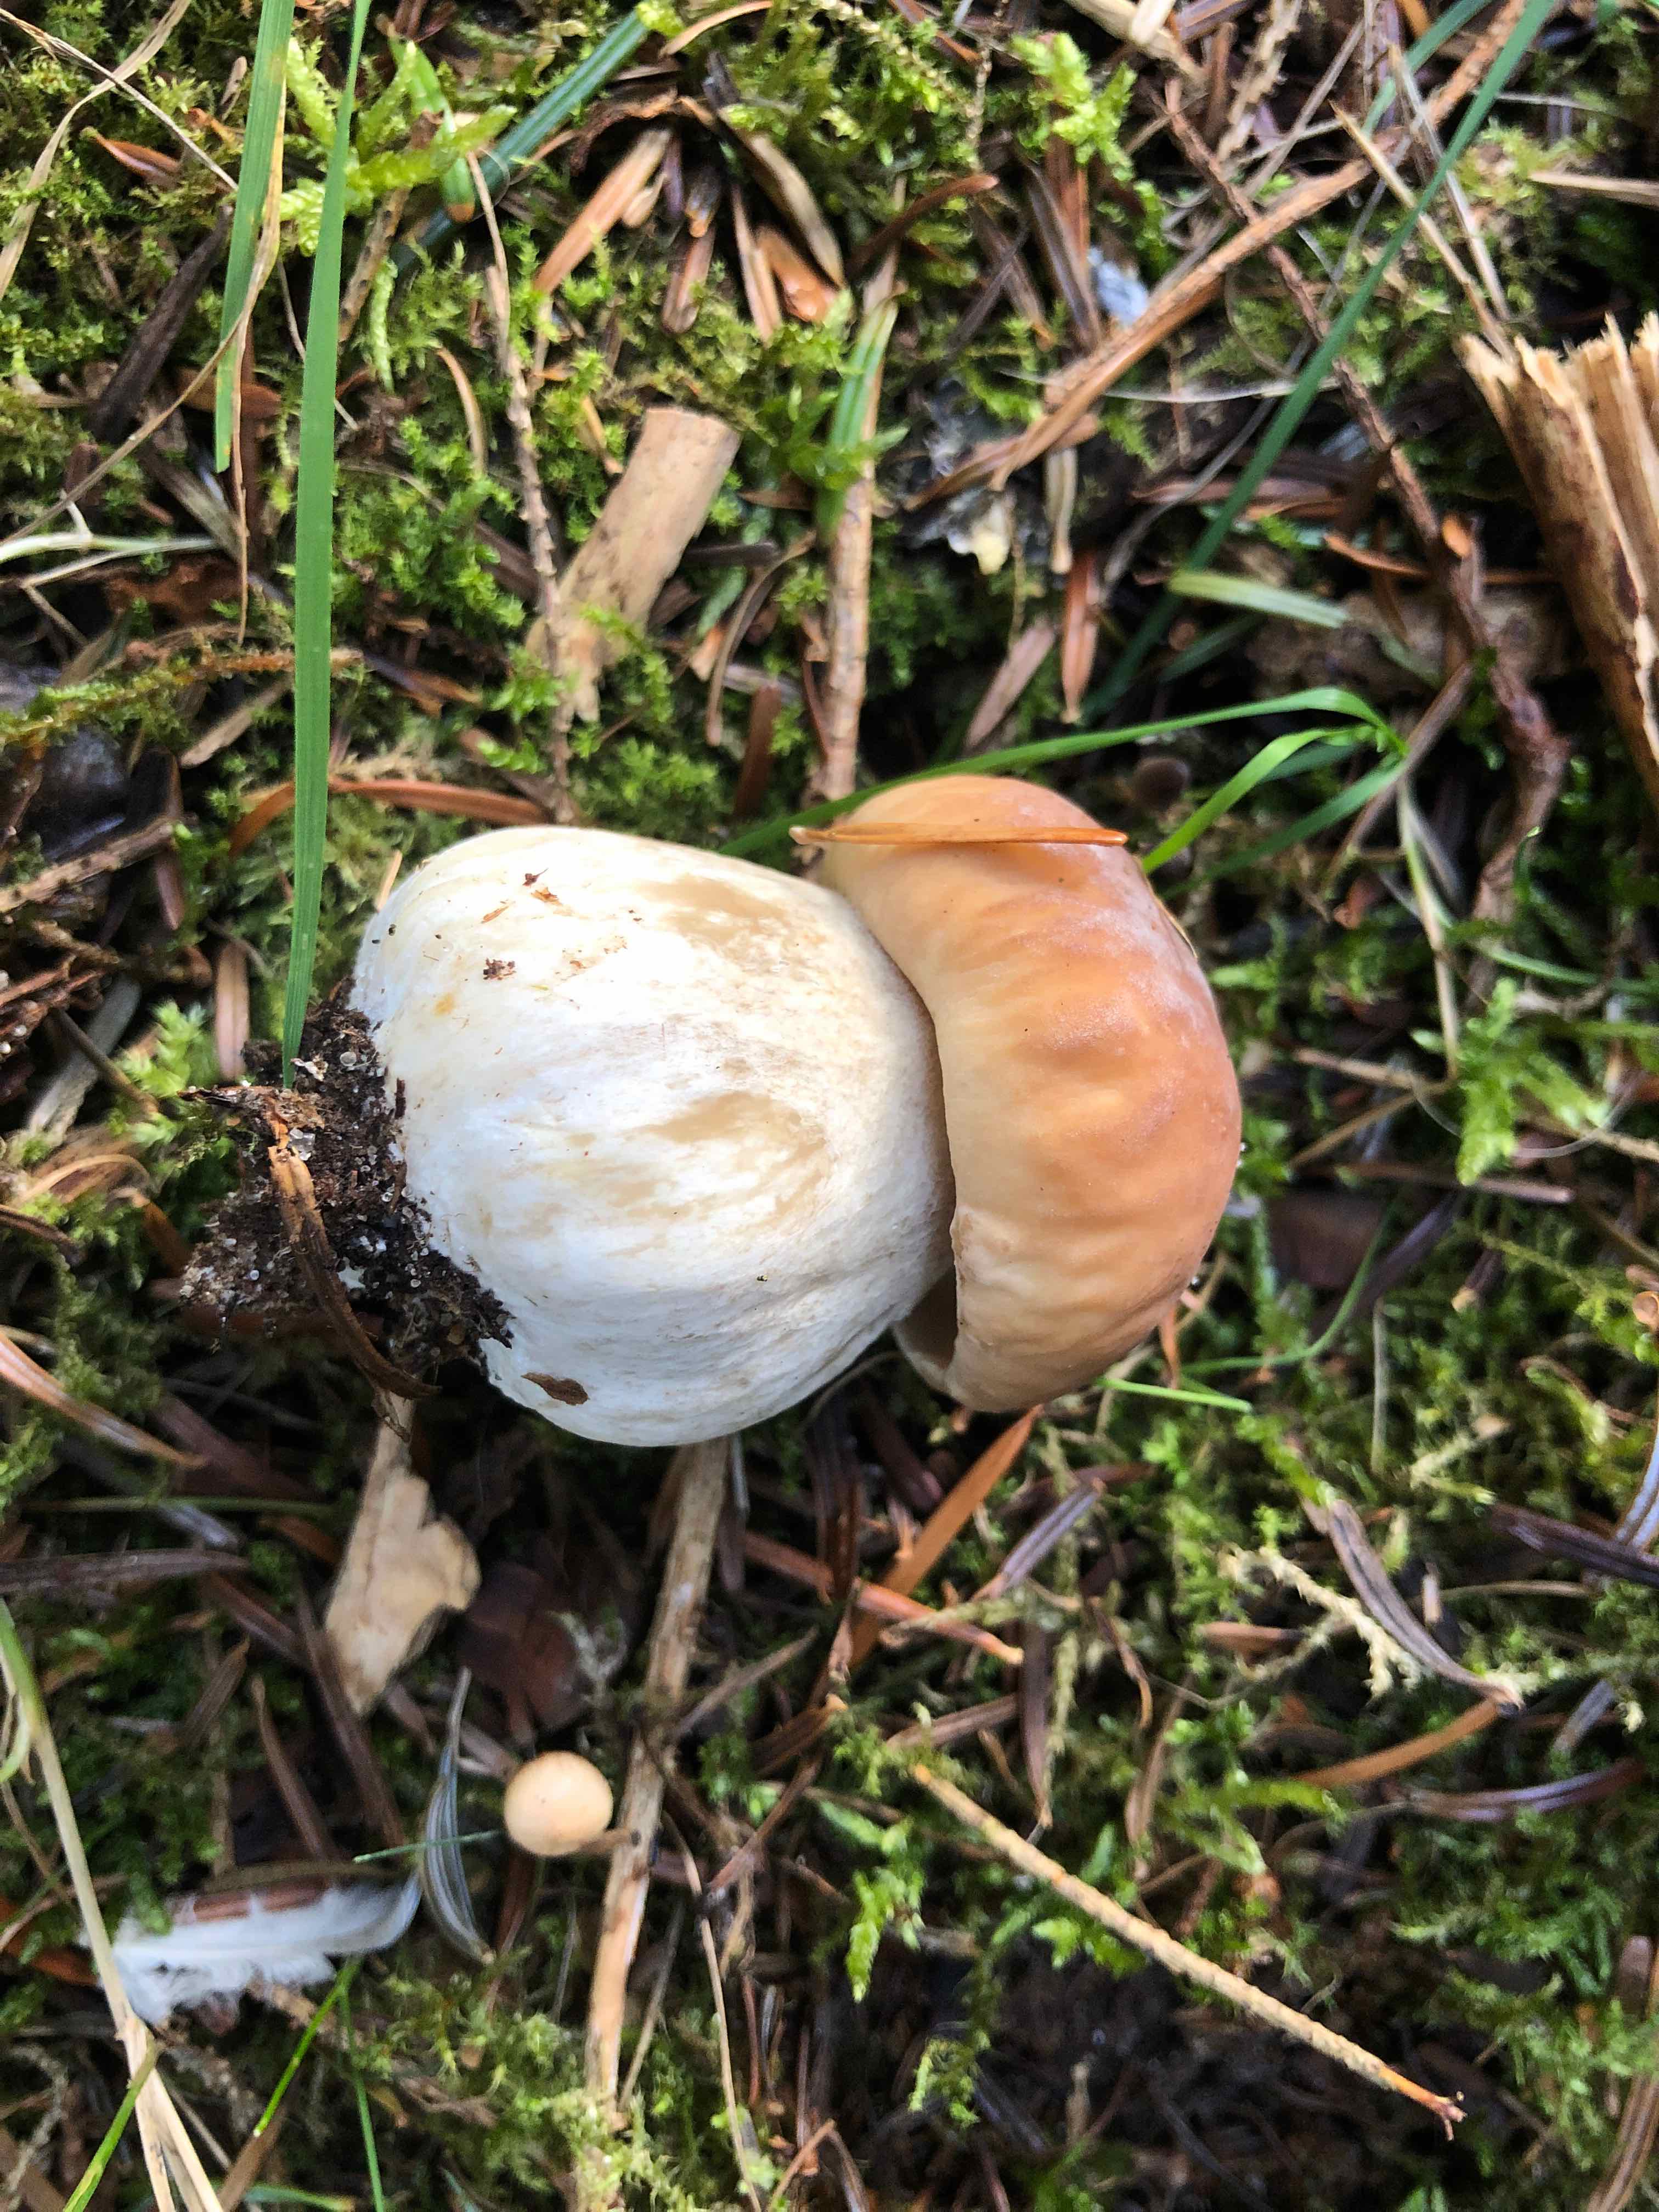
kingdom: Fungi
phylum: Basidiomycota
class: Agaricomycetes
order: Boletales
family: Boletaceae
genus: Boletus
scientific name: Boletus edulis
